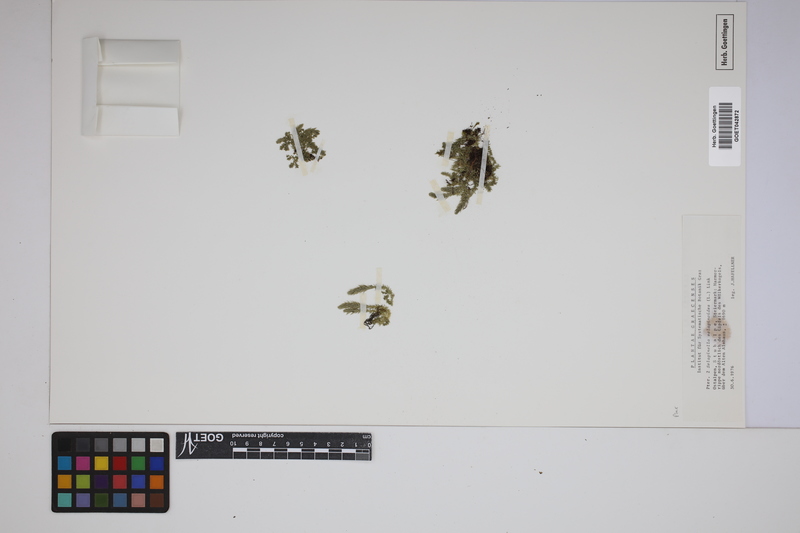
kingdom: Plantae
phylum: Tracheophyta
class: Lycopodiopsida
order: Selaginellales
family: Selaginellaceae
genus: Selaginella
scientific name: Selaginella selaginoides
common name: Prickly mountain-moss
